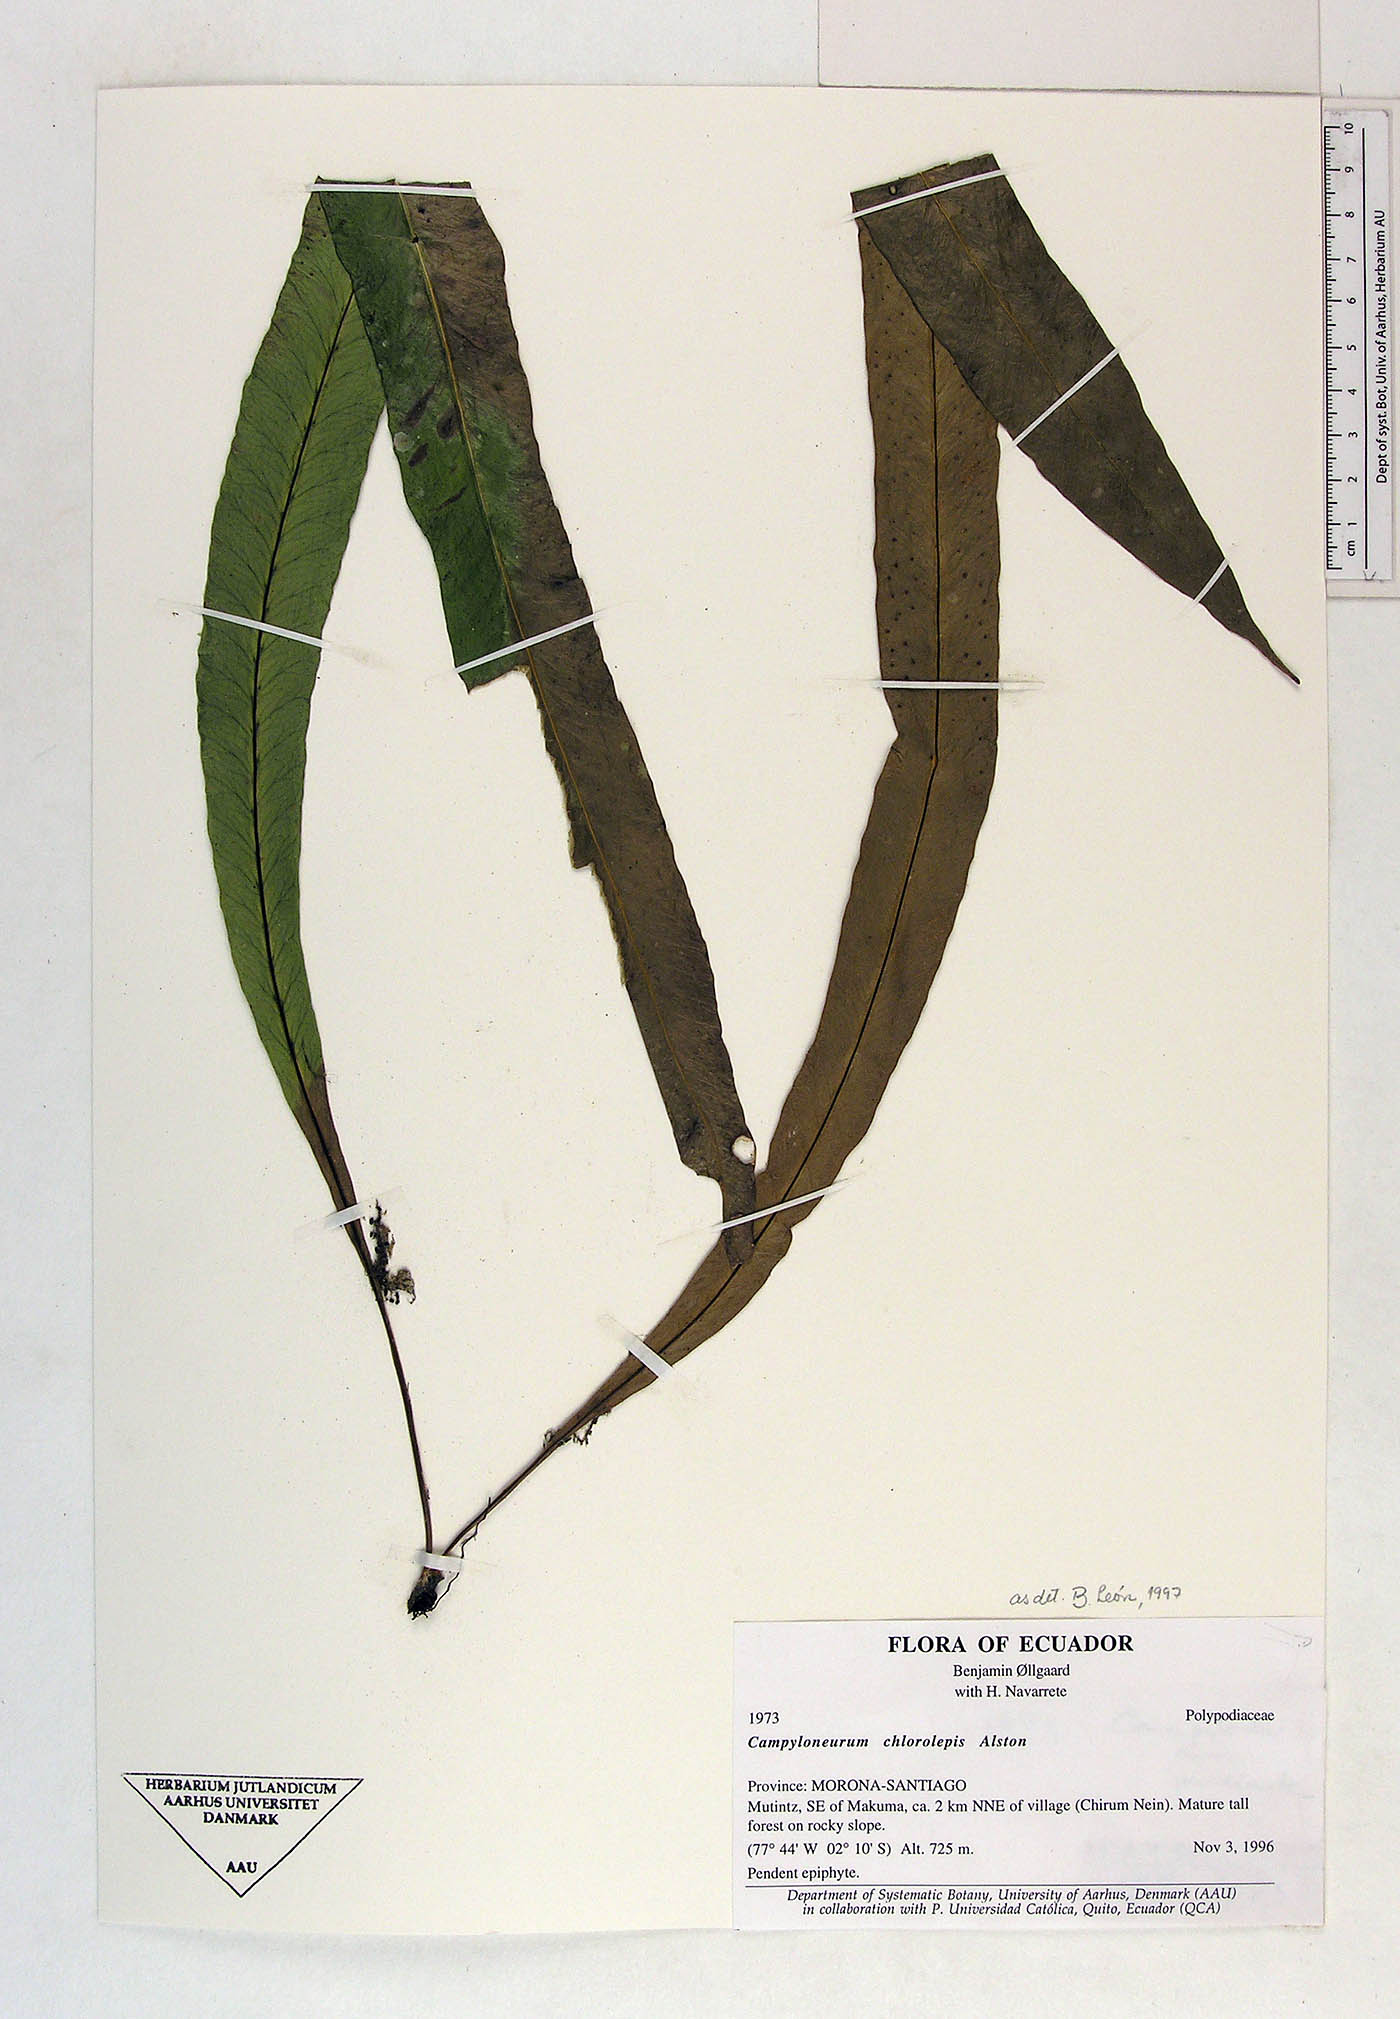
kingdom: Plantae
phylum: Tracheophyta
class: Polypodiopsida
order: Polypodiales
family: Polypodiaceae
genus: Campyloneurum
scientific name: Campyloneurum chlorolepis
